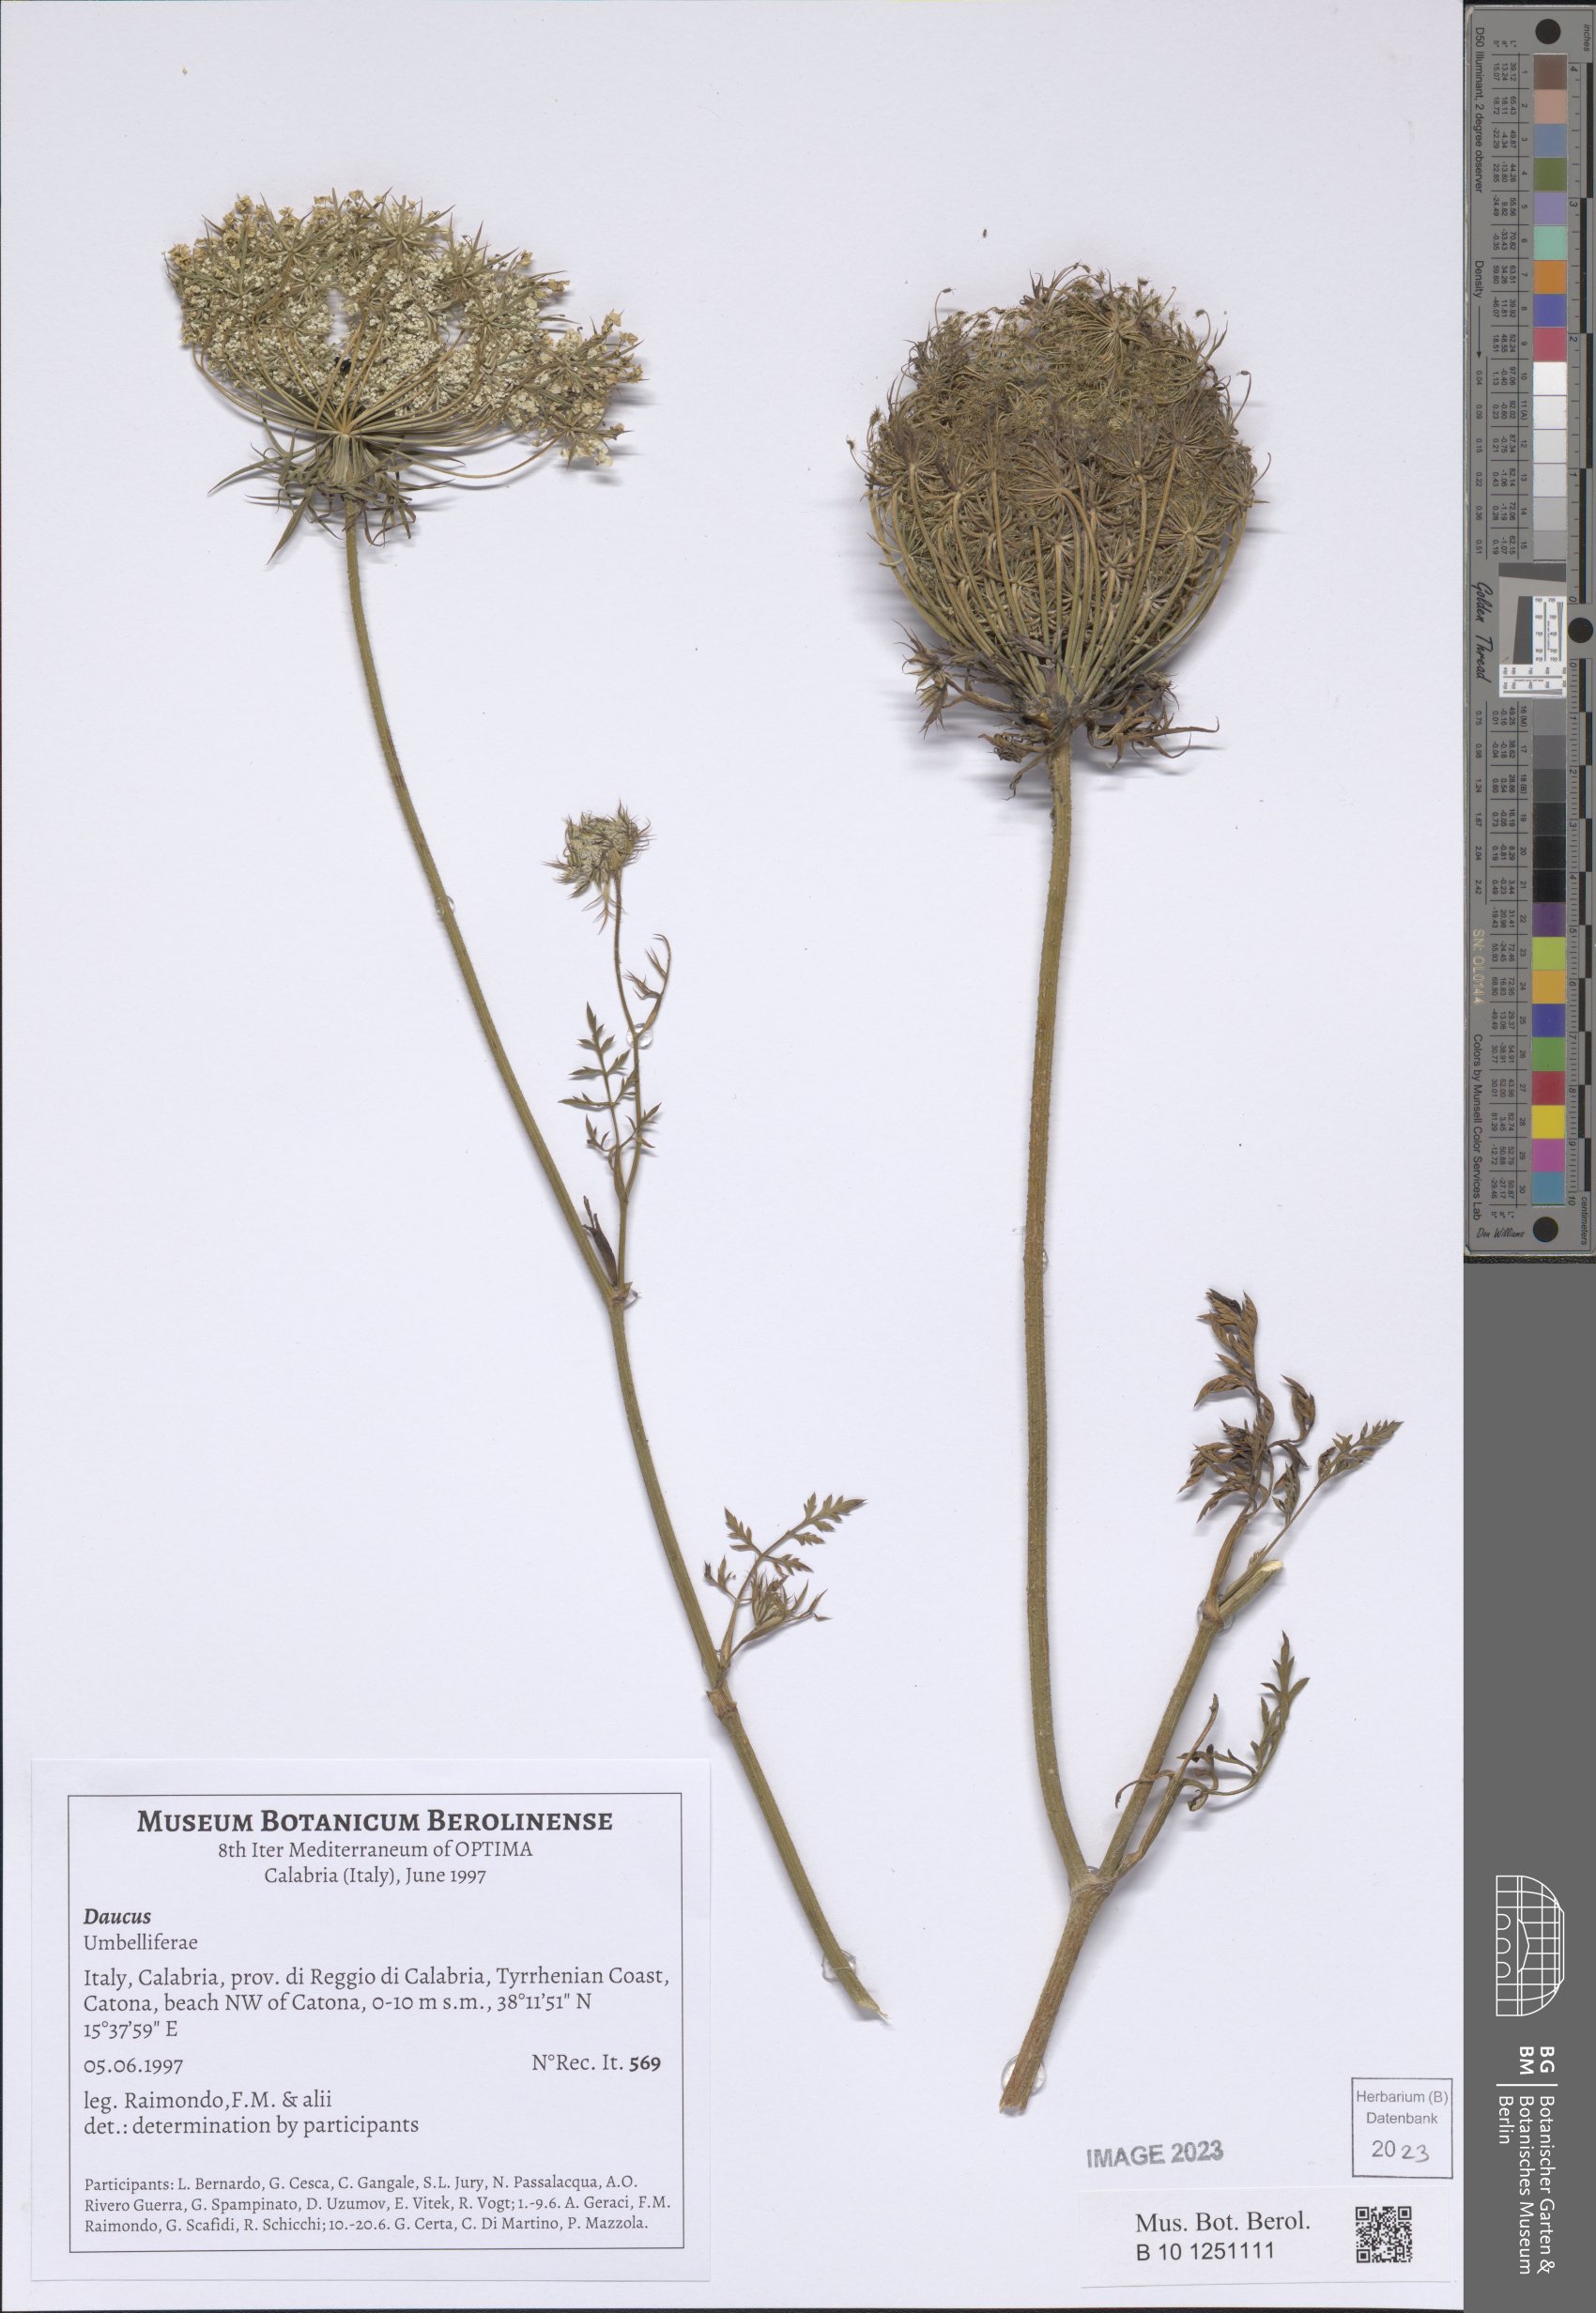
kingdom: Plantae
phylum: Tracheophyta
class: Magnoliopsida
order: Apiales
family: Apiaceae
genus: Daucus
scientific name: Daucus
